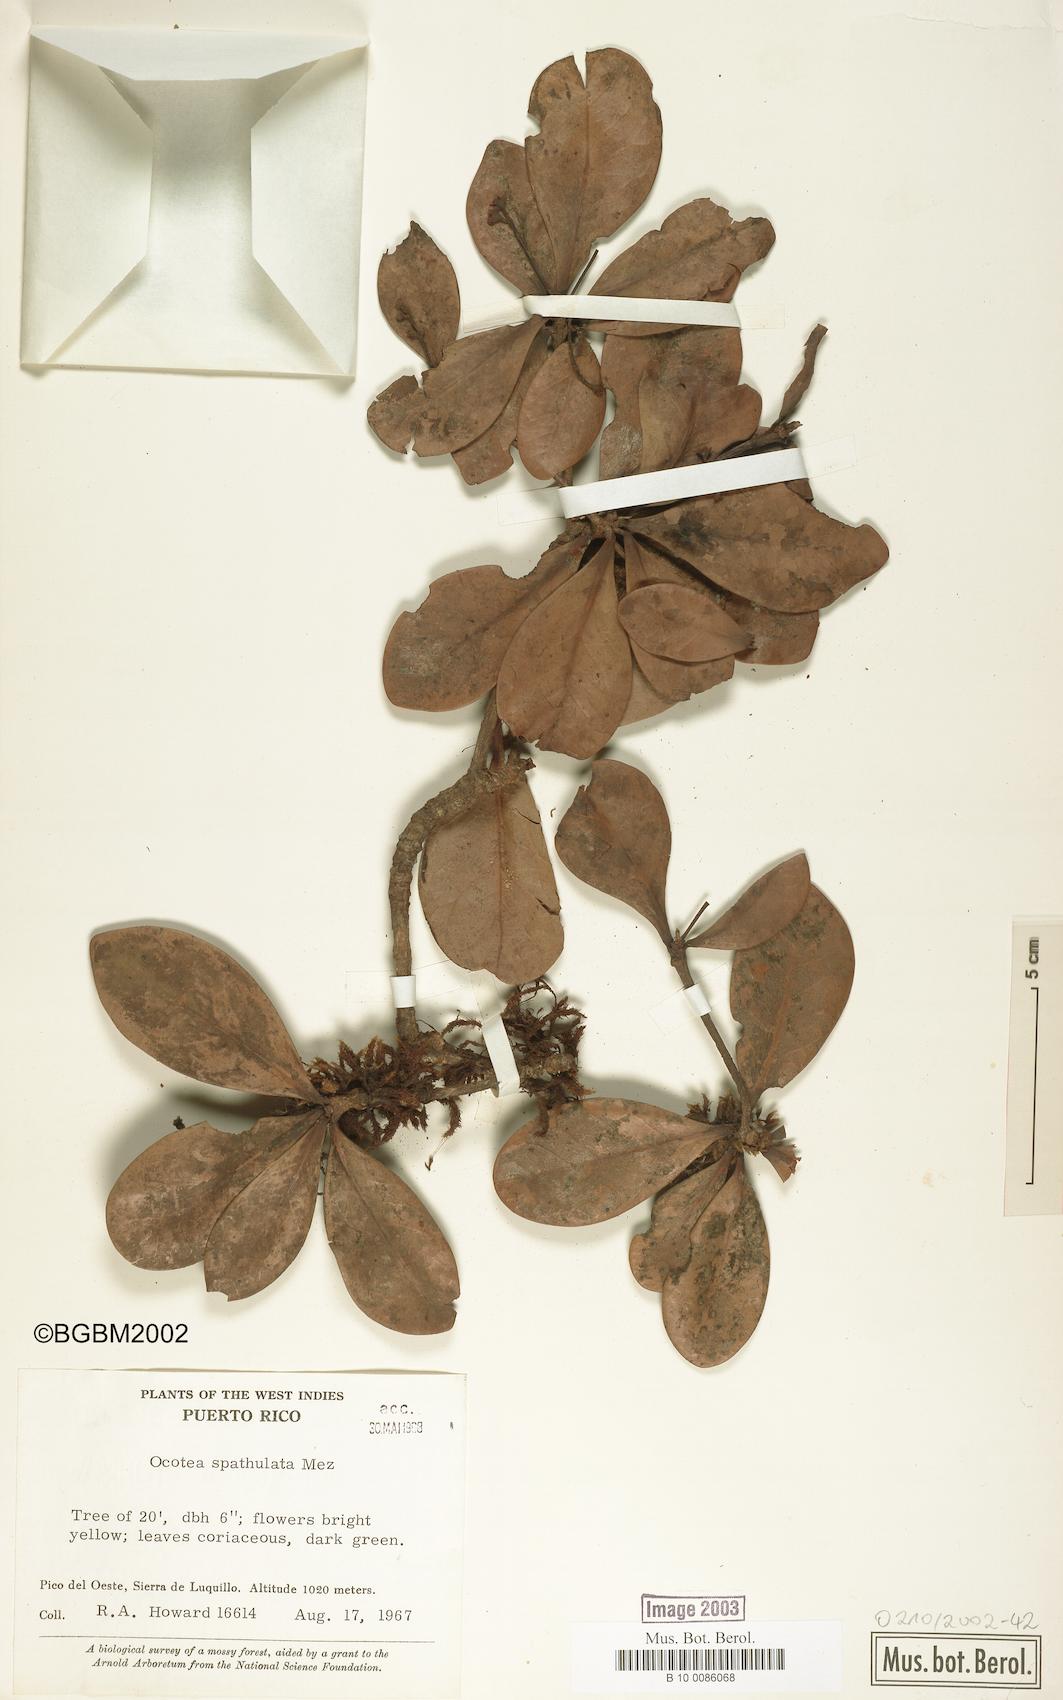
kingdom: Plantae
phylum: Tracheophyta
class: Magnoliopsida
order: Laurales
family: Lauraceae
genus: Ocotea
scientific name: Ocotea spathulata
